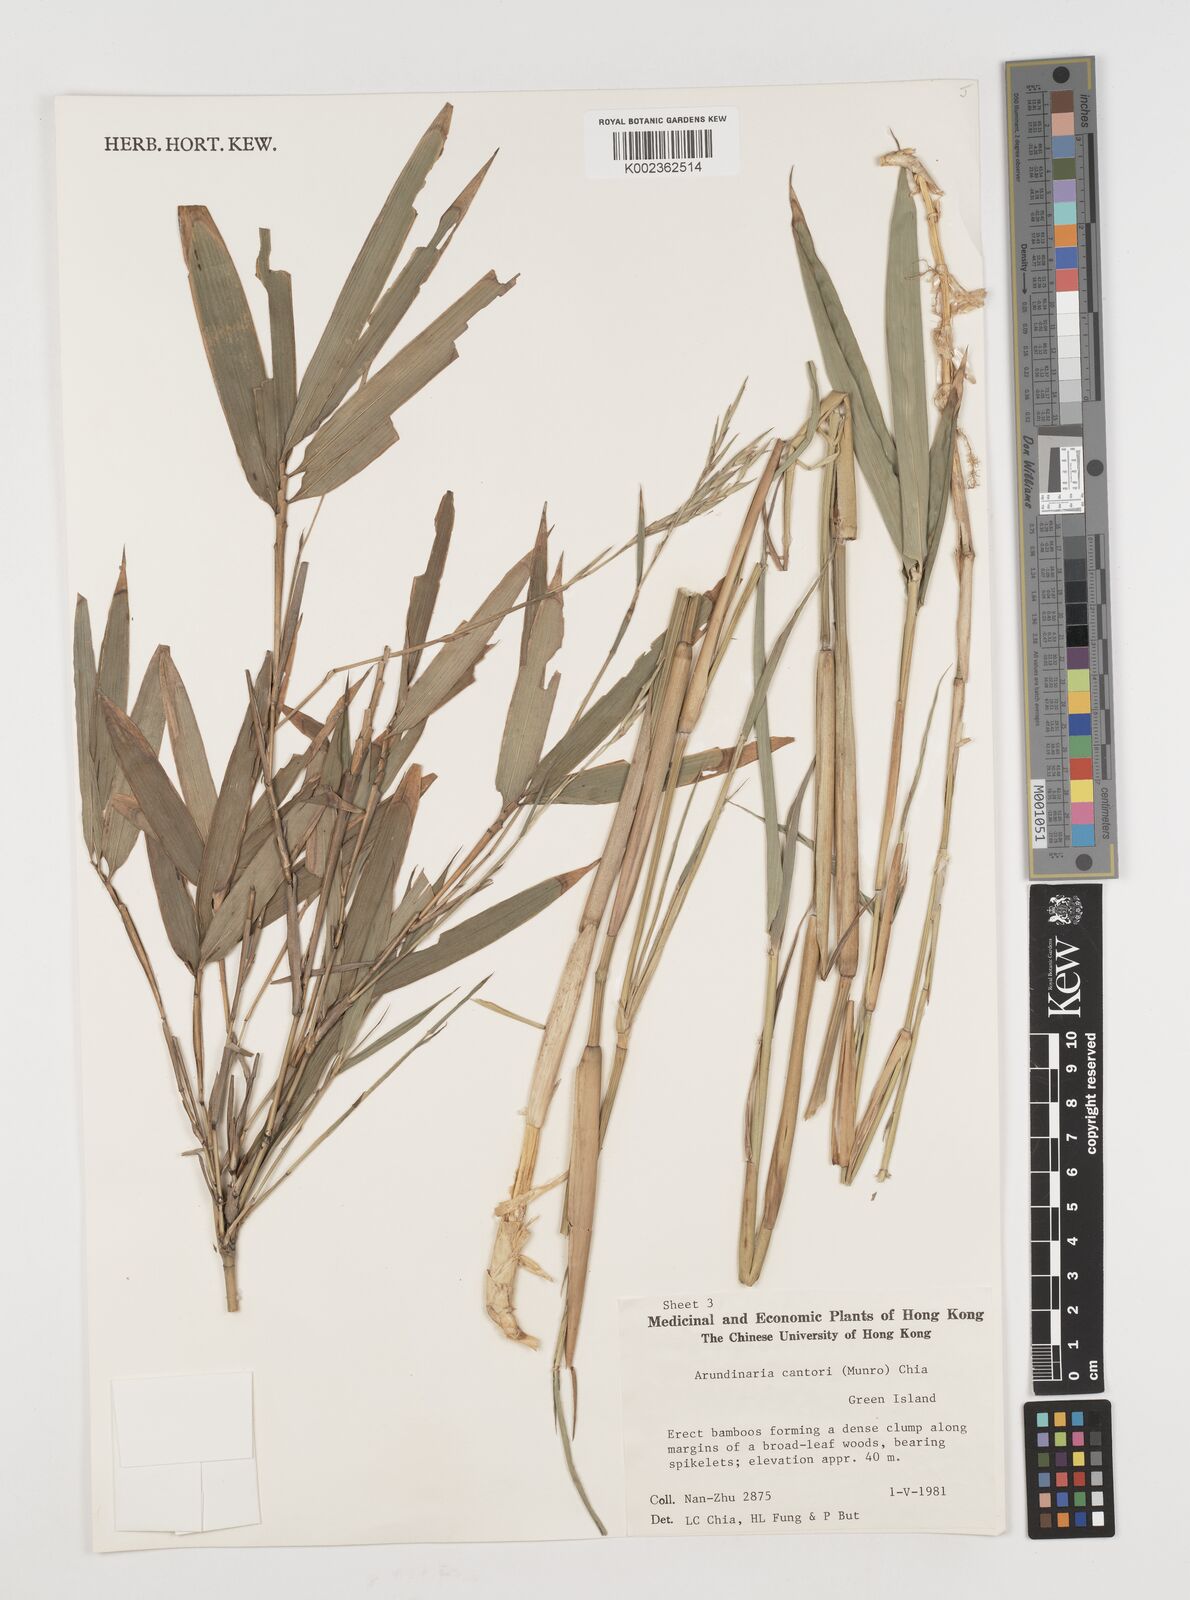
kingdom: Plantae
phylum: Tracheophyta
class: Liliopsida
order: Poales
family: Poaceae
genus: Pseudosasa
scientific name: Pseudosasa cantorii
